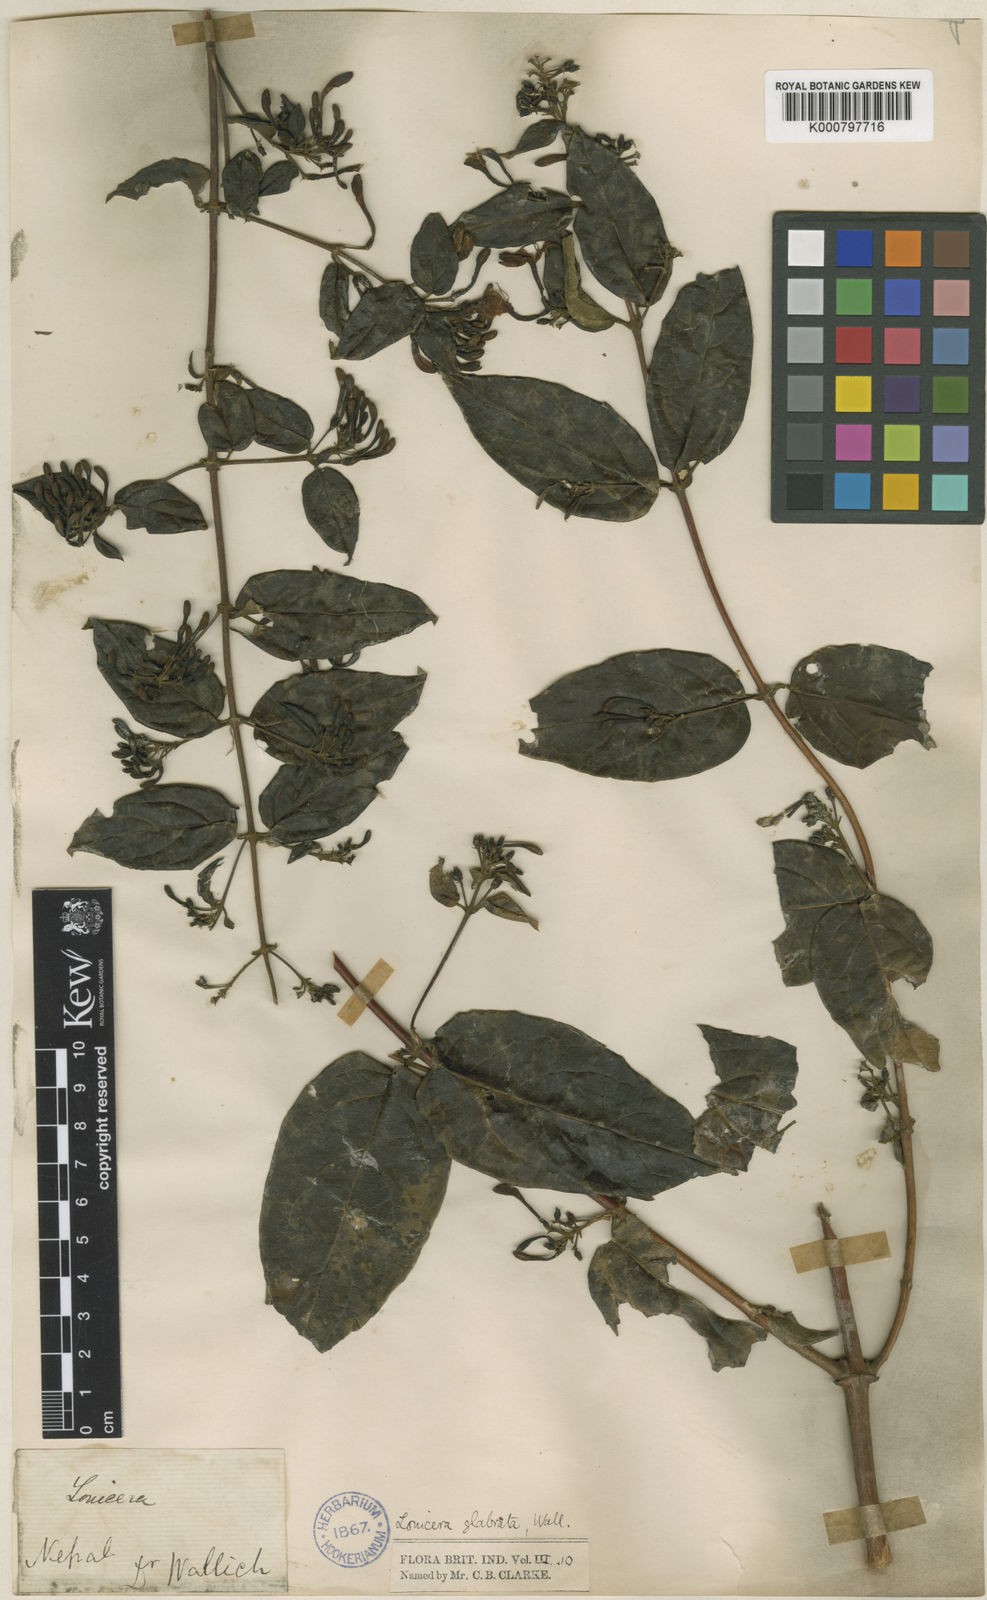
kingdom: Plantae
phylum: Tracheophyta
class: Magnoliopsida
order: Dipsacales
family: Caprifoliaceae
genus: Lonicera
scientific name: Lonicera glabrata
